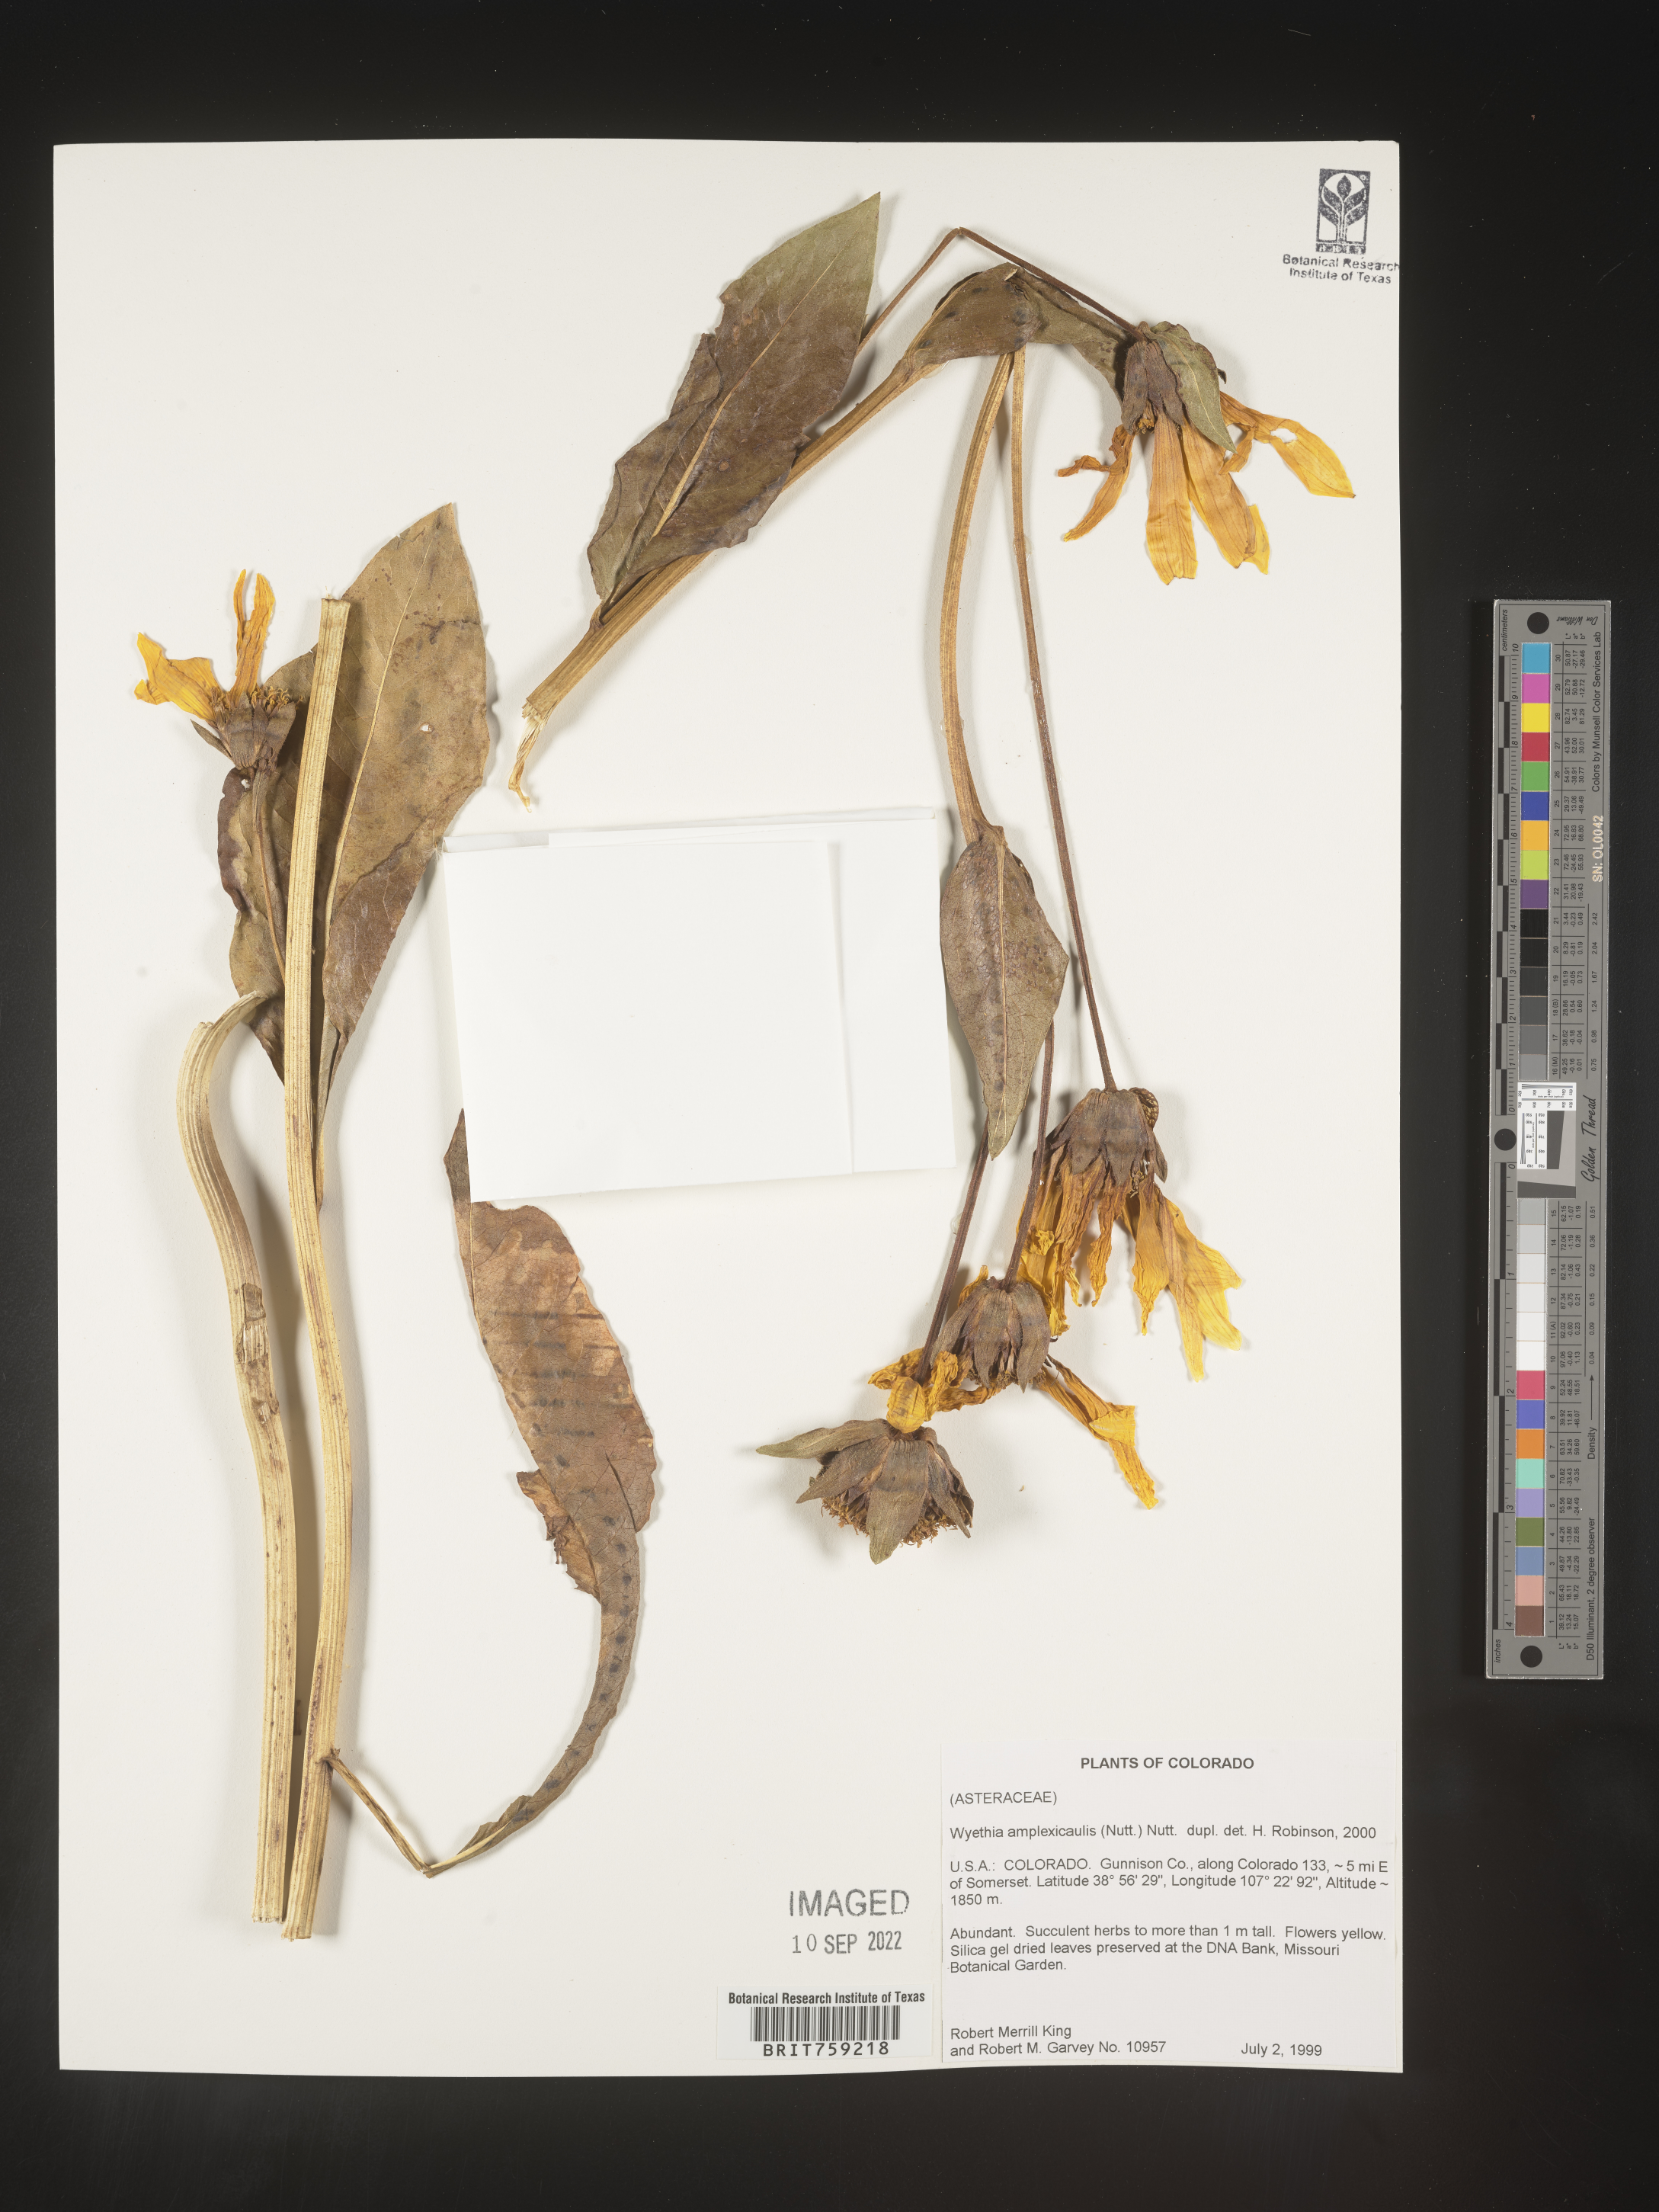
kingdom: Plantae
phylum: Tracheophyta
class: Magnoliopsida
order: Asterales
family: Asteraceae
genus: Wyethia
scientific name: Wyethia amplexicaulis
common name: Northern mule's-ears
